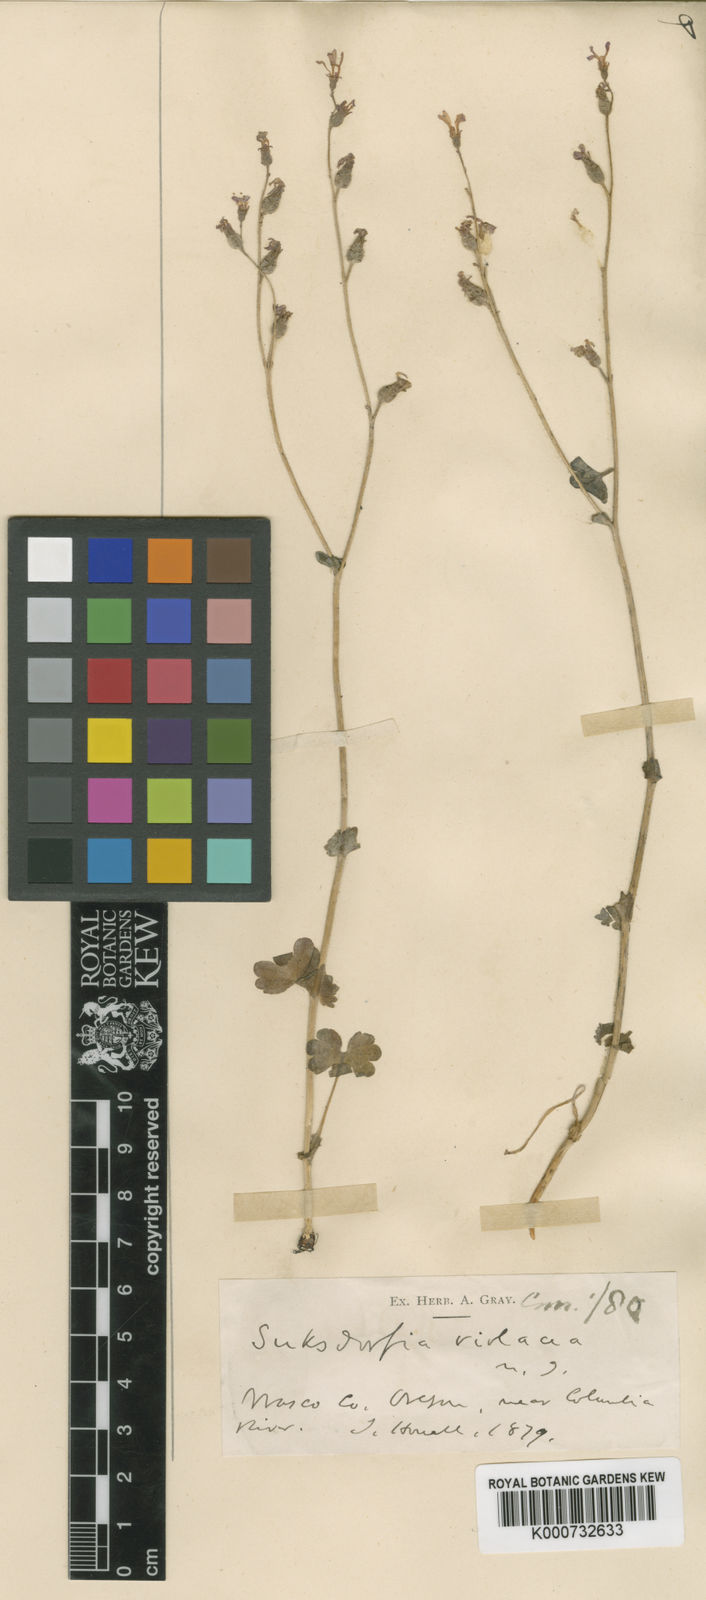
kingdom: Plantae
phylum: Tracheophyta
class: Magnoliopsida
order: Saxifragales
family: Saxifragaceae
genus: Suksdorfia
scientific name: Suksdorfia violacea
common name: Blue suksdorfia
